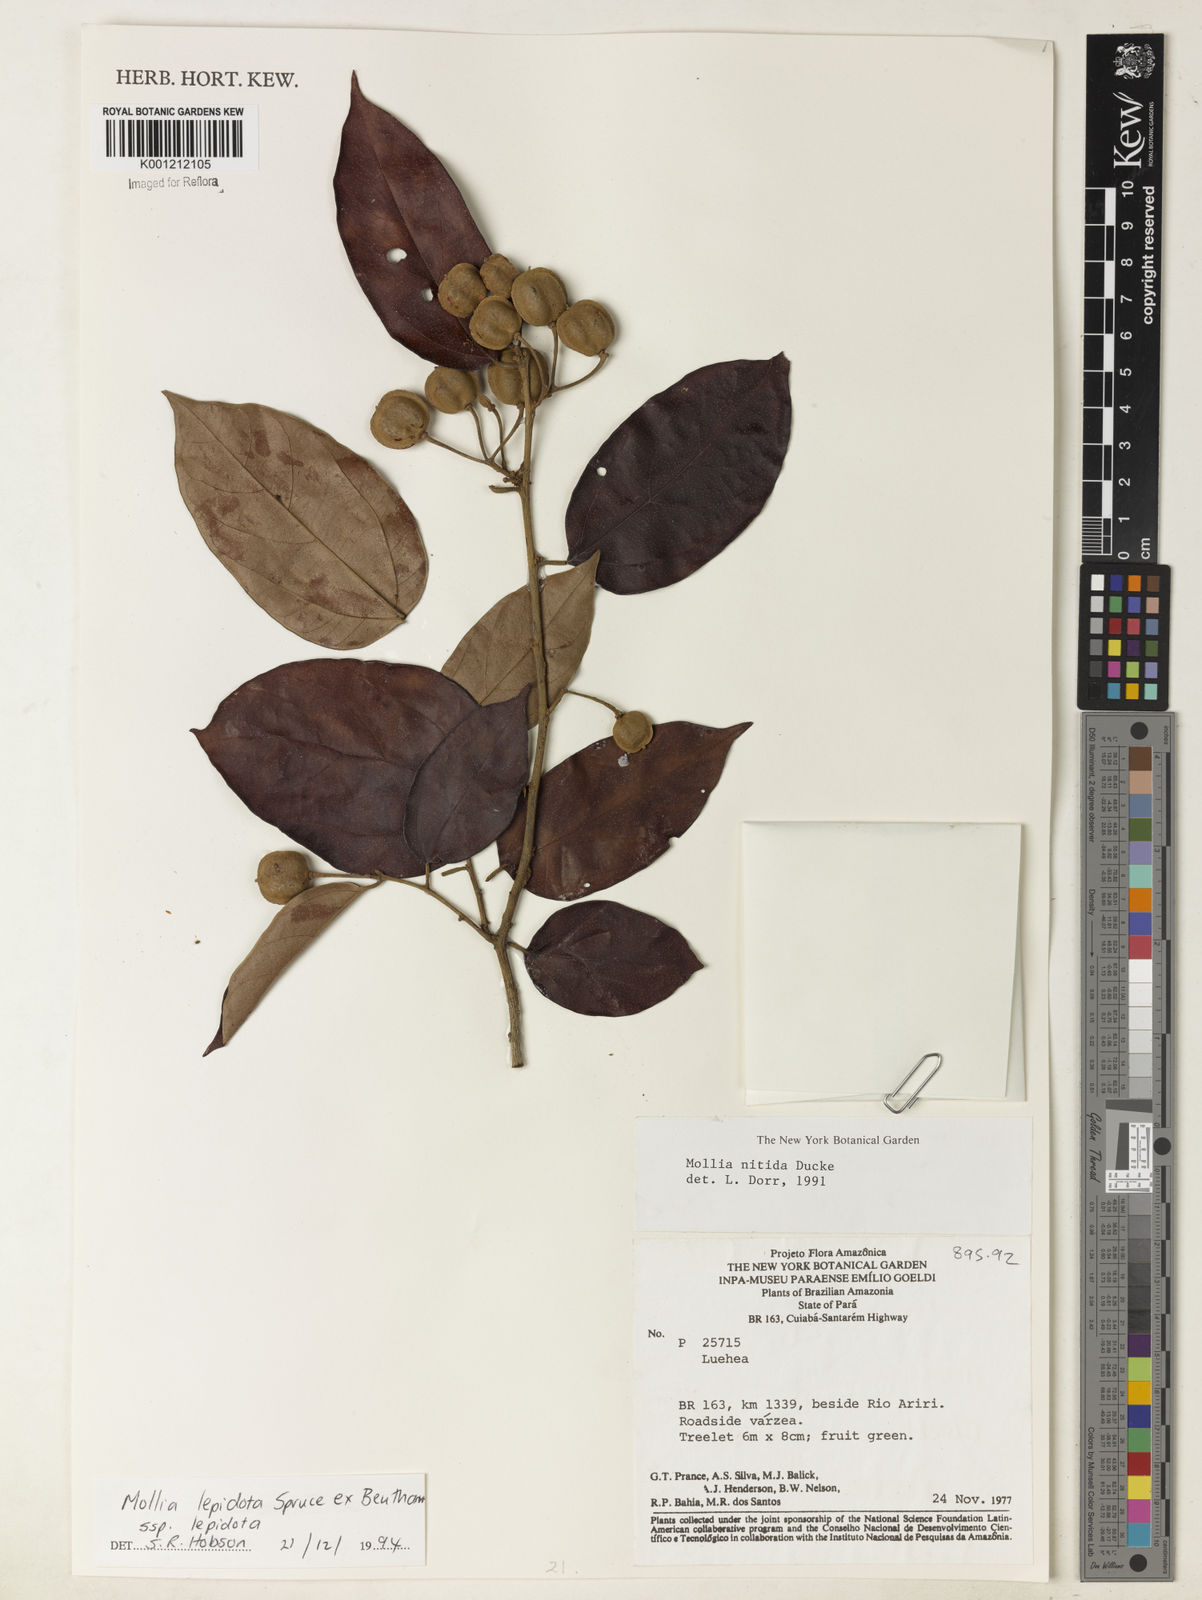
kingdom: Plantae
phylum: Tracheophyta
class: Magnoliopsida
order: Malvales
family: Malvaceae
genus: Mollia
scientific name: Mollia lepidota
